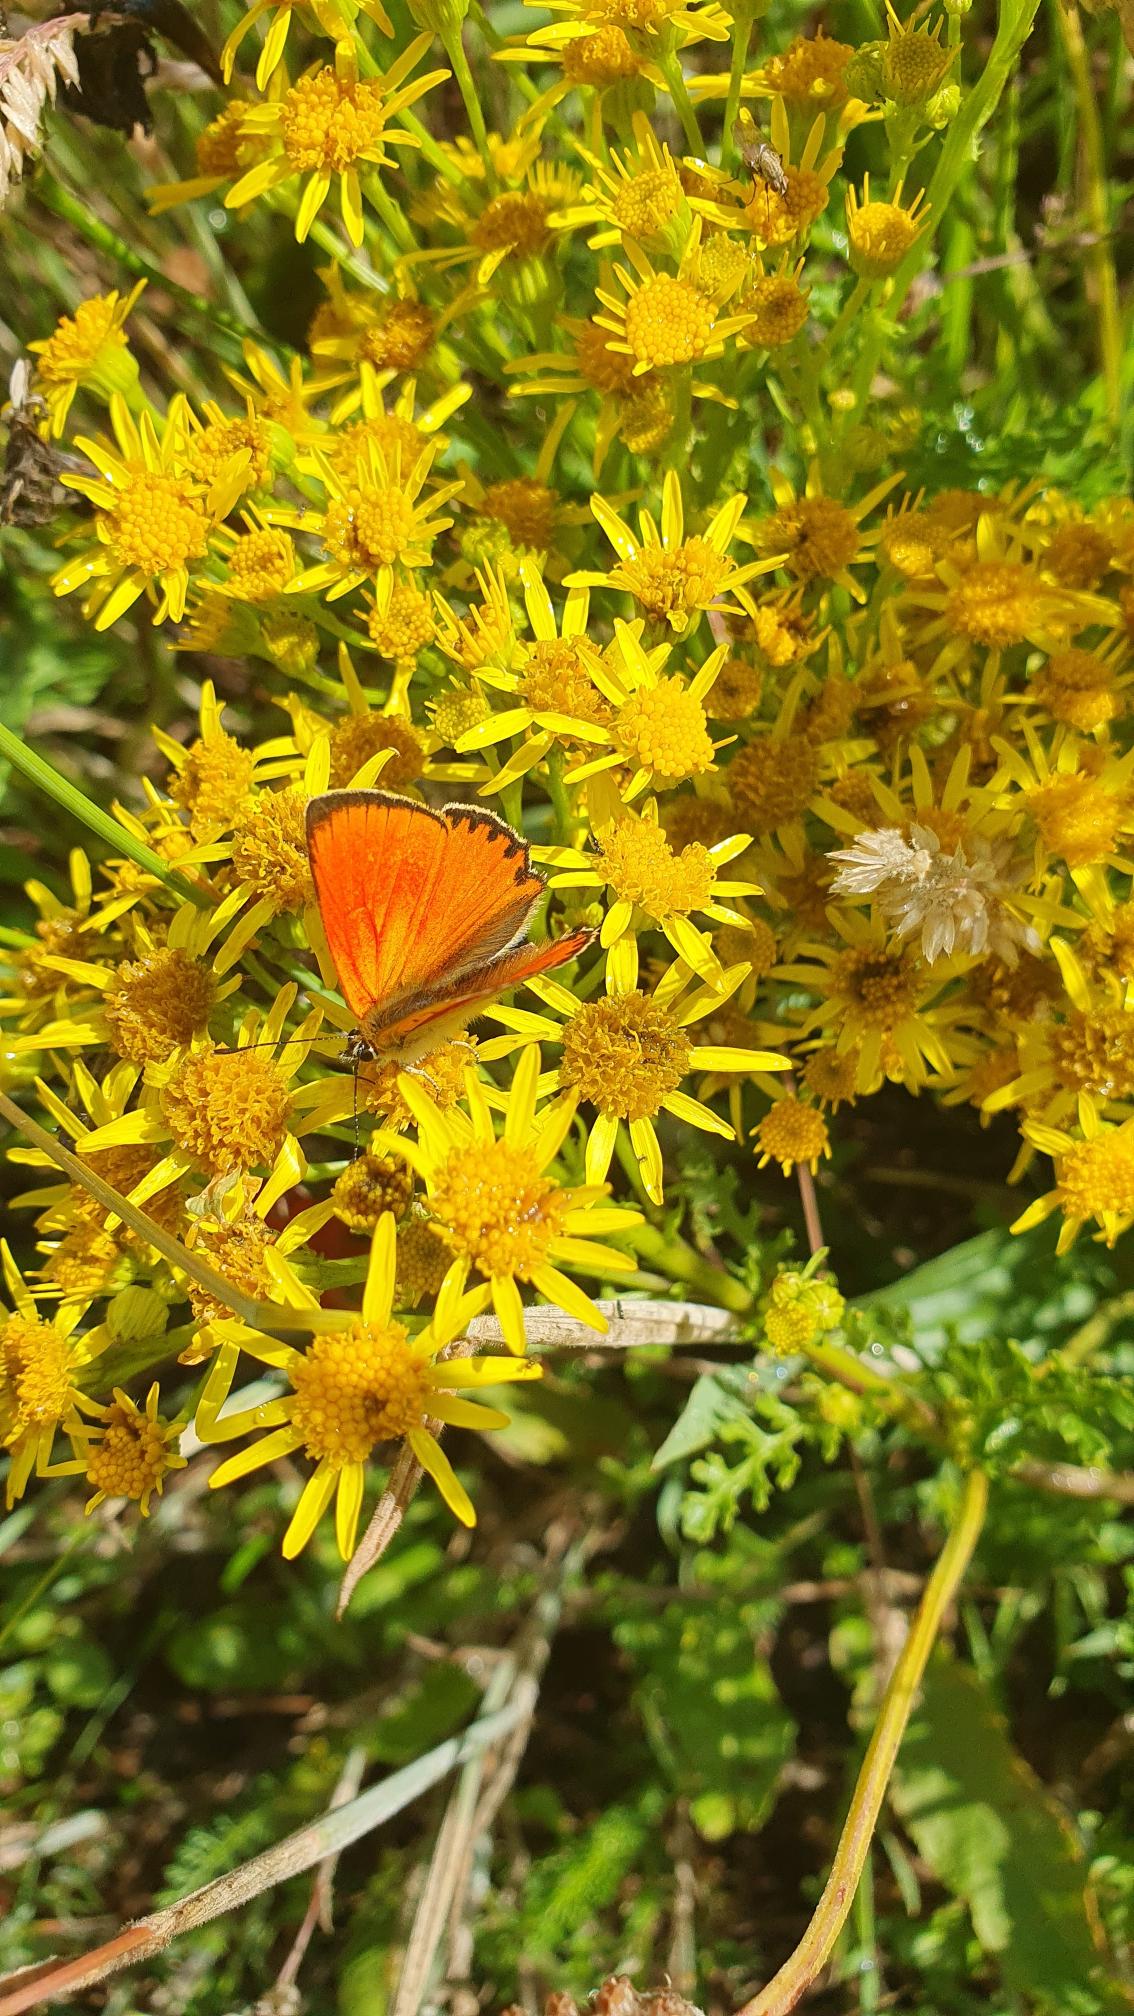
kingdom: Animalia
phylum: Arthropoda
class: Insecta
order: Lepidoptera
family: Lycaenidae
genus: Lycaena
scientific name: Lycaena virgaureae
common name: Dukatsommerfugl
